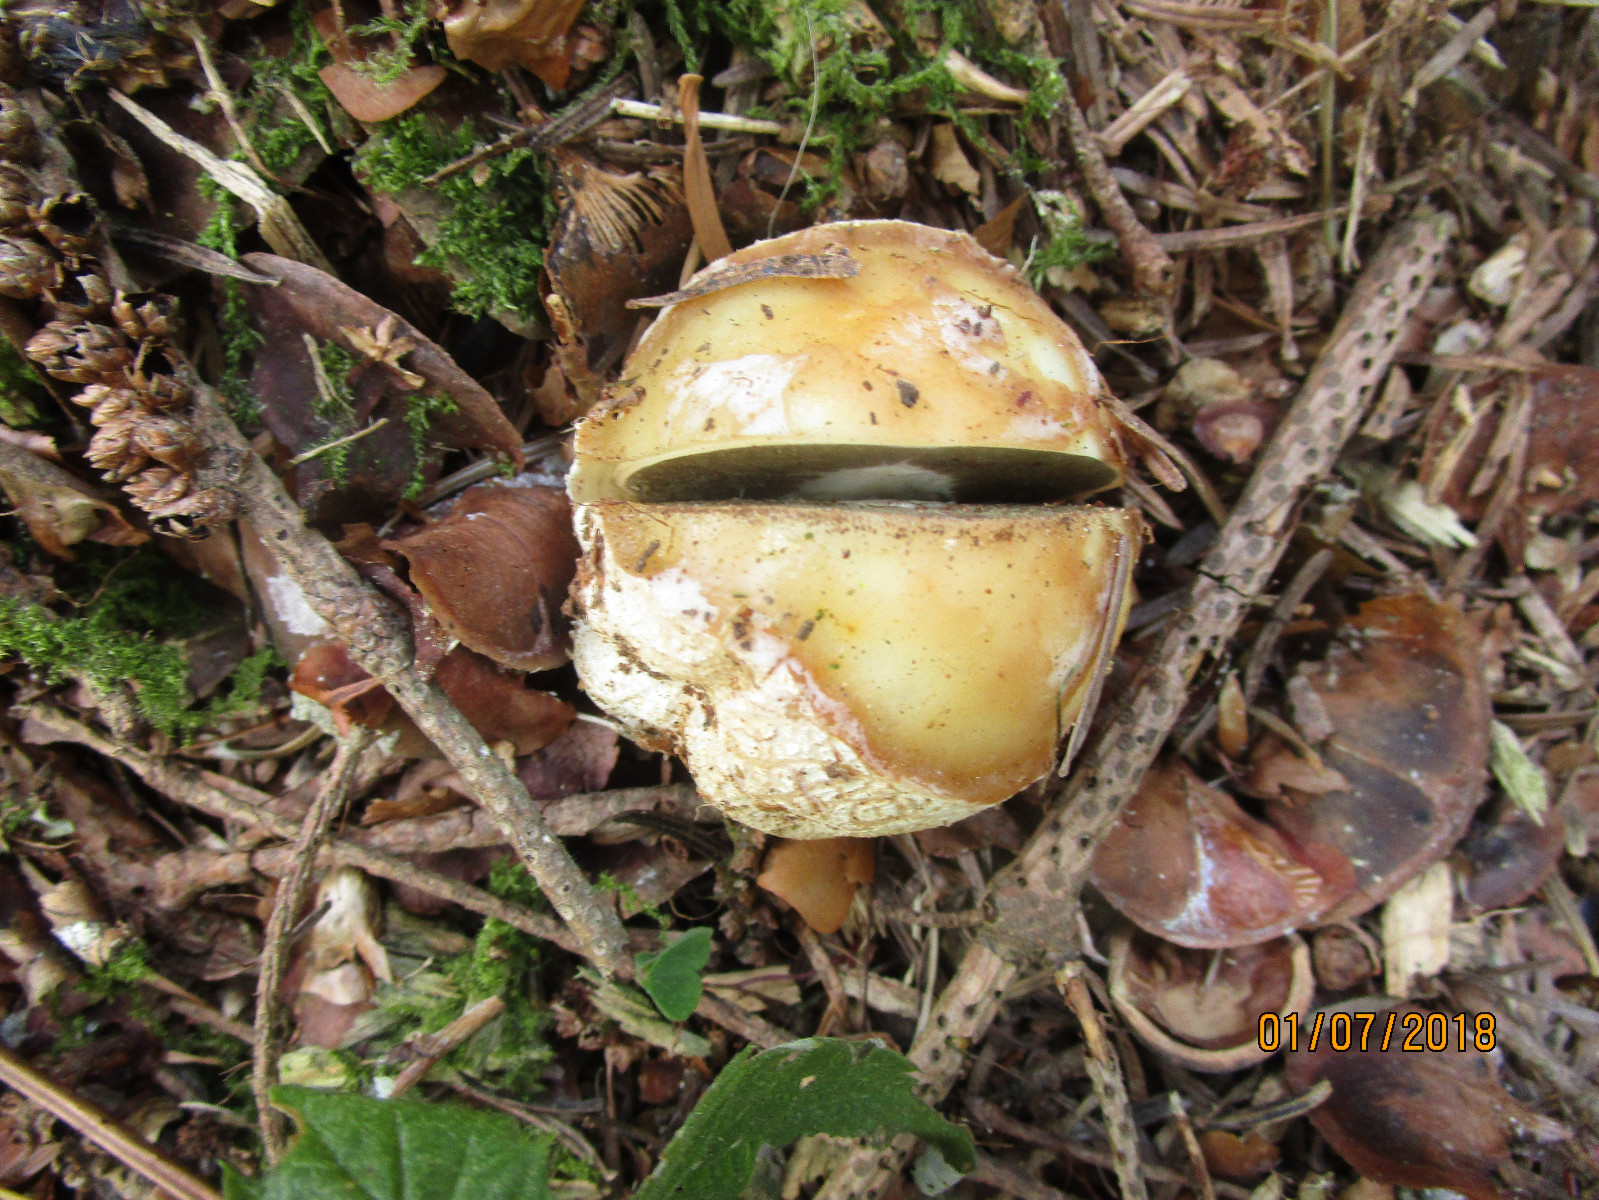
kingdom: Fungi
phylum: Basidiomycota
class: Agaricomycetes
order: Phallales
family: Phallaceae
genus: Phallus
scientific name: Phallus impudicus
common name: almindelig stinksvamp
